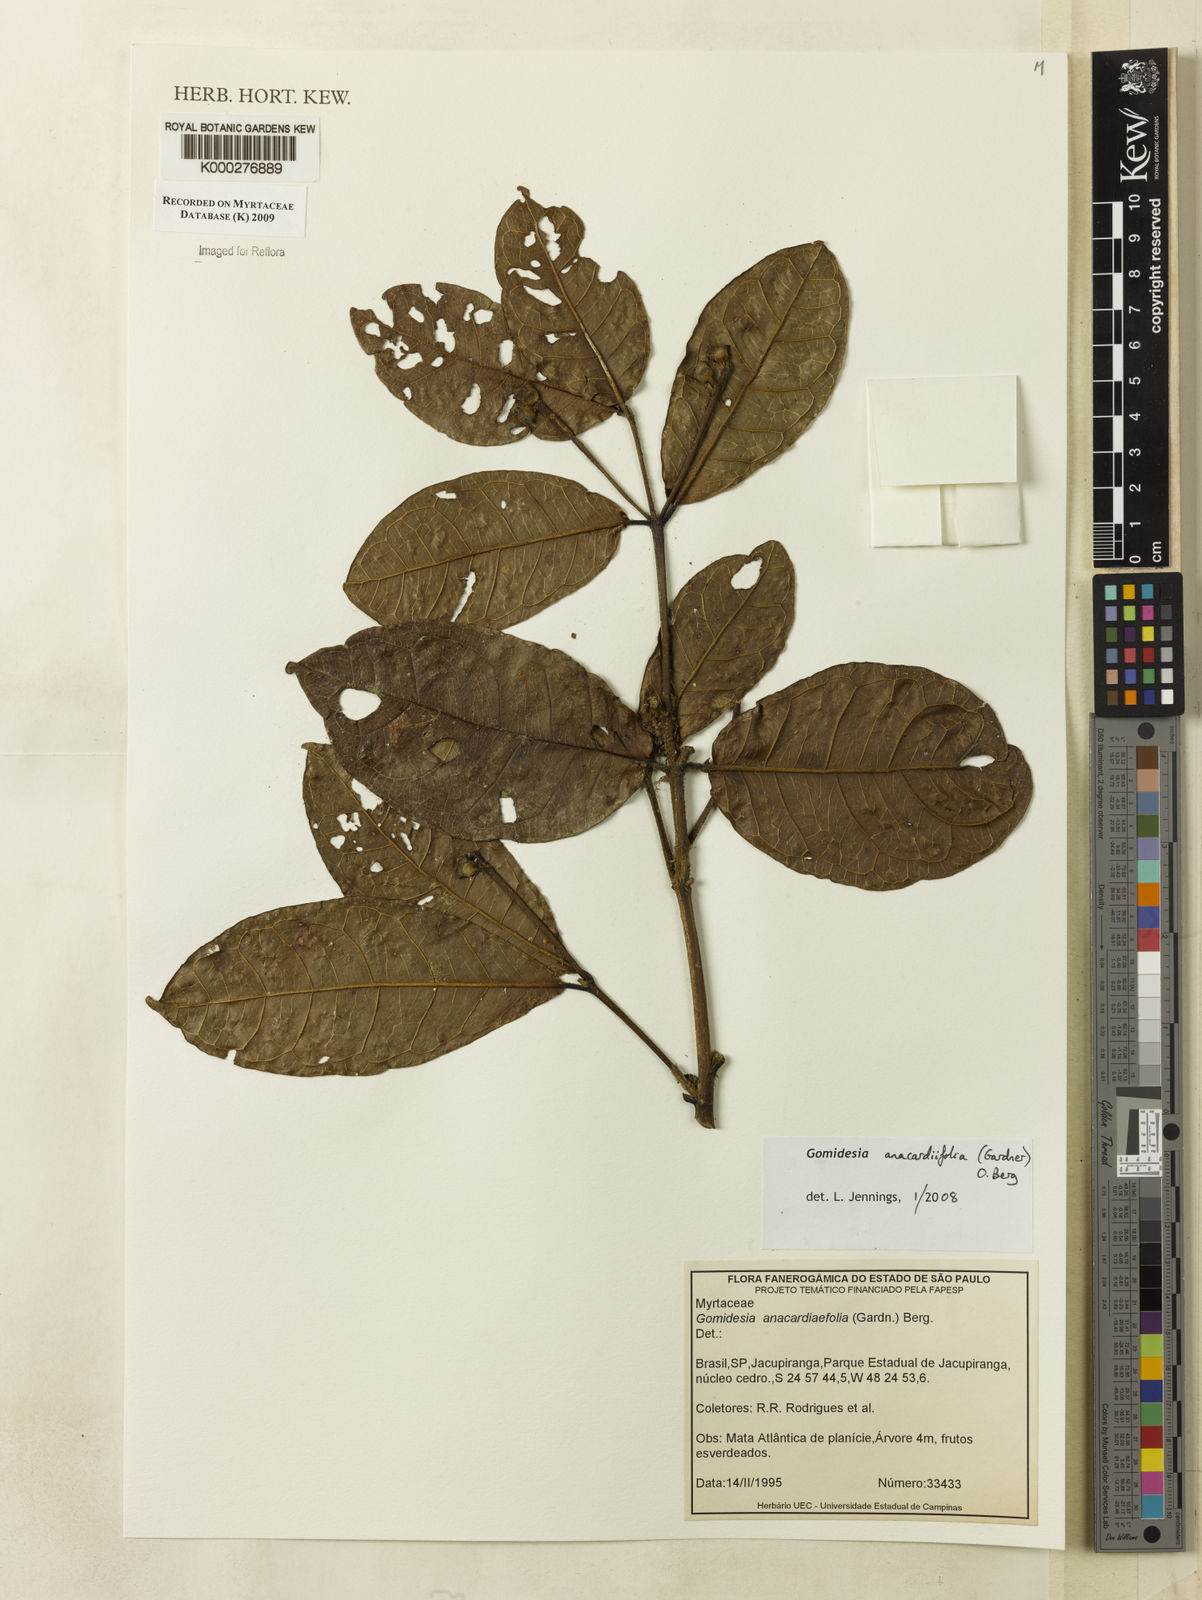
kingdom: Plantae
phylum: Tracheophyta
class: Magnoliopsida
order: Myrtales
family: Myrtaceae
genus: Myrcia
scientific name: Myrcia anacardiifolia
